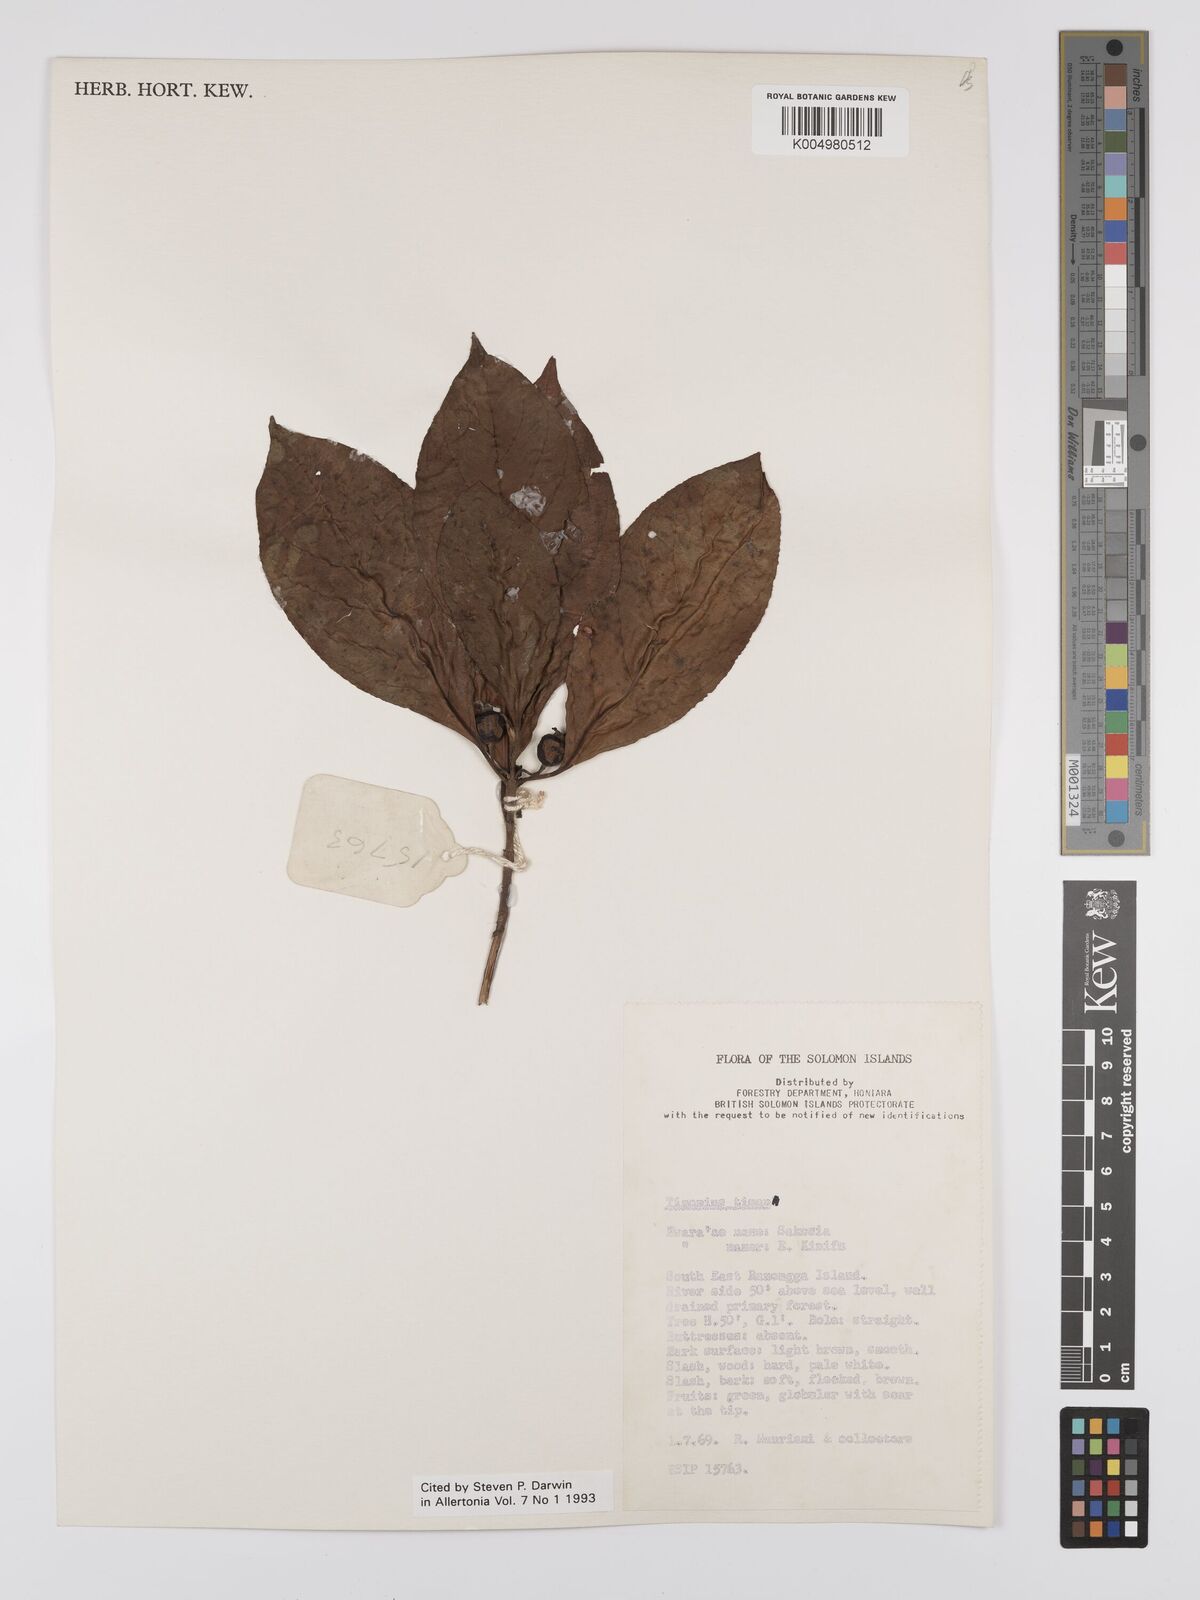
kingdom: Plantae
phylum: Tracheophyta
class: Magnoliopsida
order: Gentianales
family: Rubiaceae
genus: Timonius
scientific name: Timonius timon
